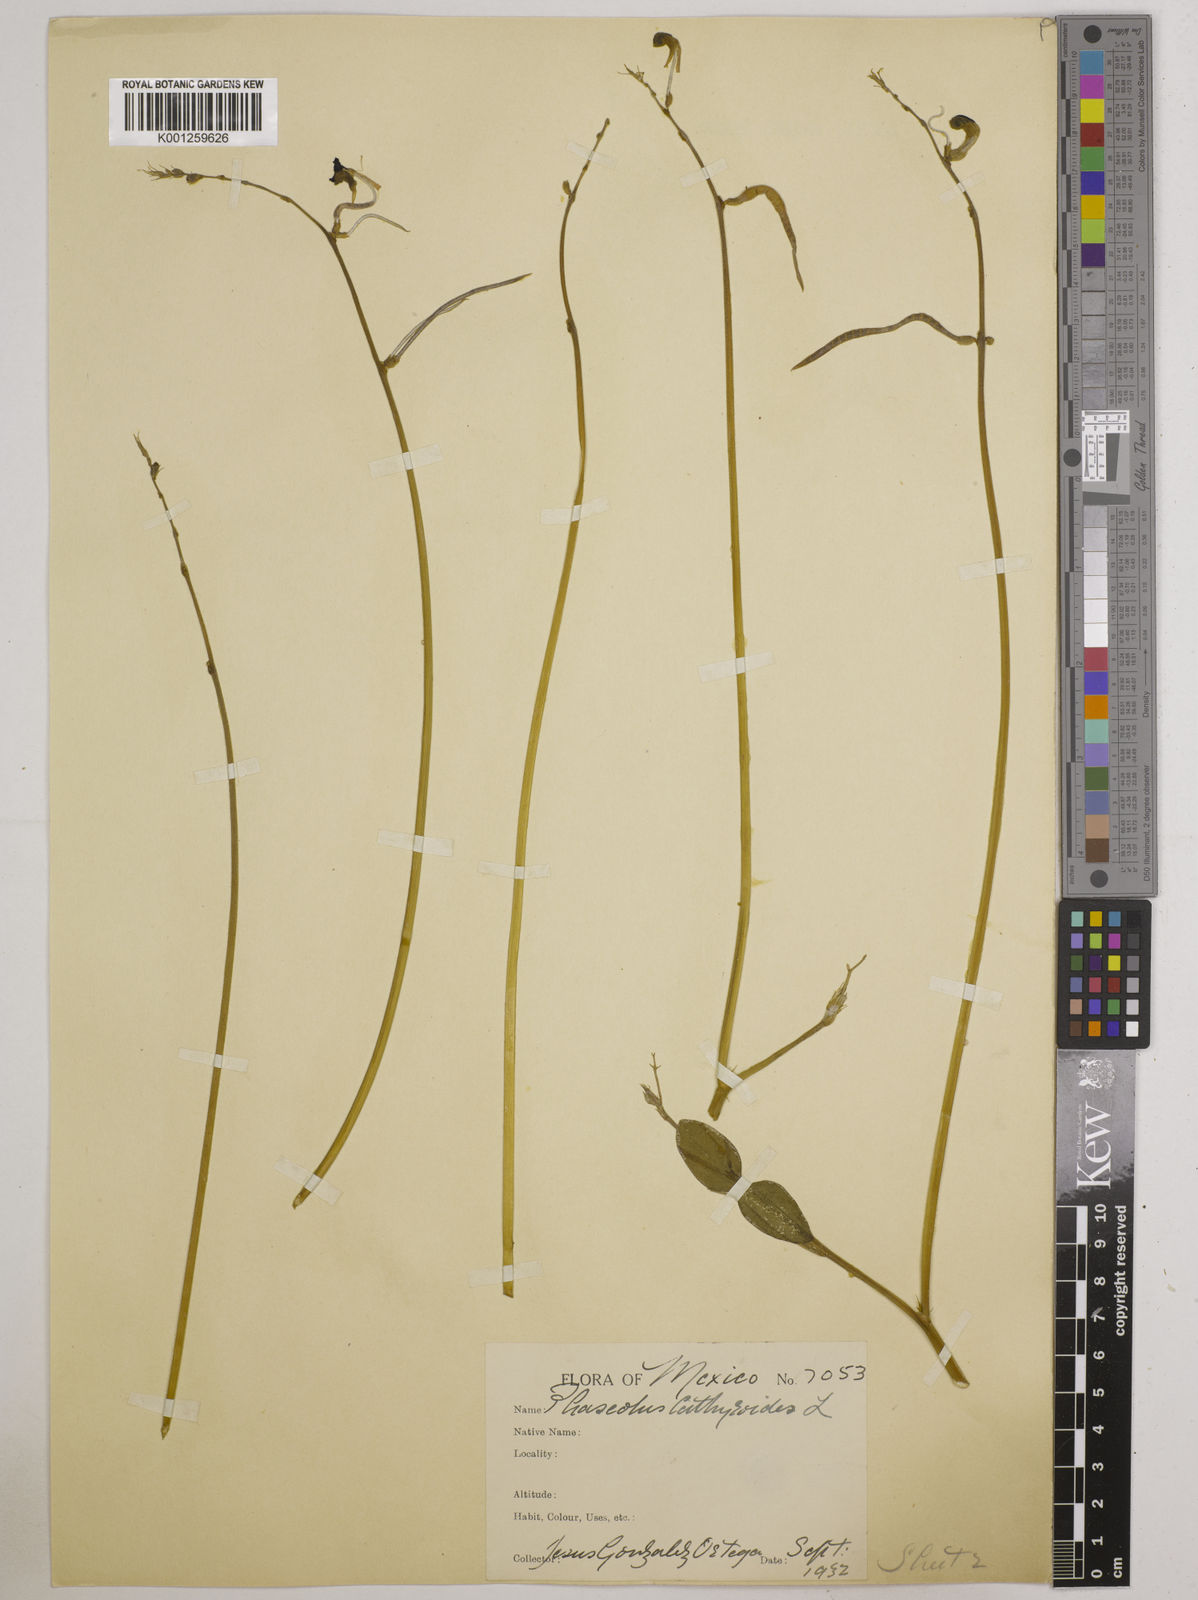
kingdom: Plantae
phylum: Tracheophyta
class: Magnoliopsida
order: Fabales
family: Fabaceae
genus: Macroptilium
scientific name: Macroptilium lathyroides
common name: Wild bushbean
